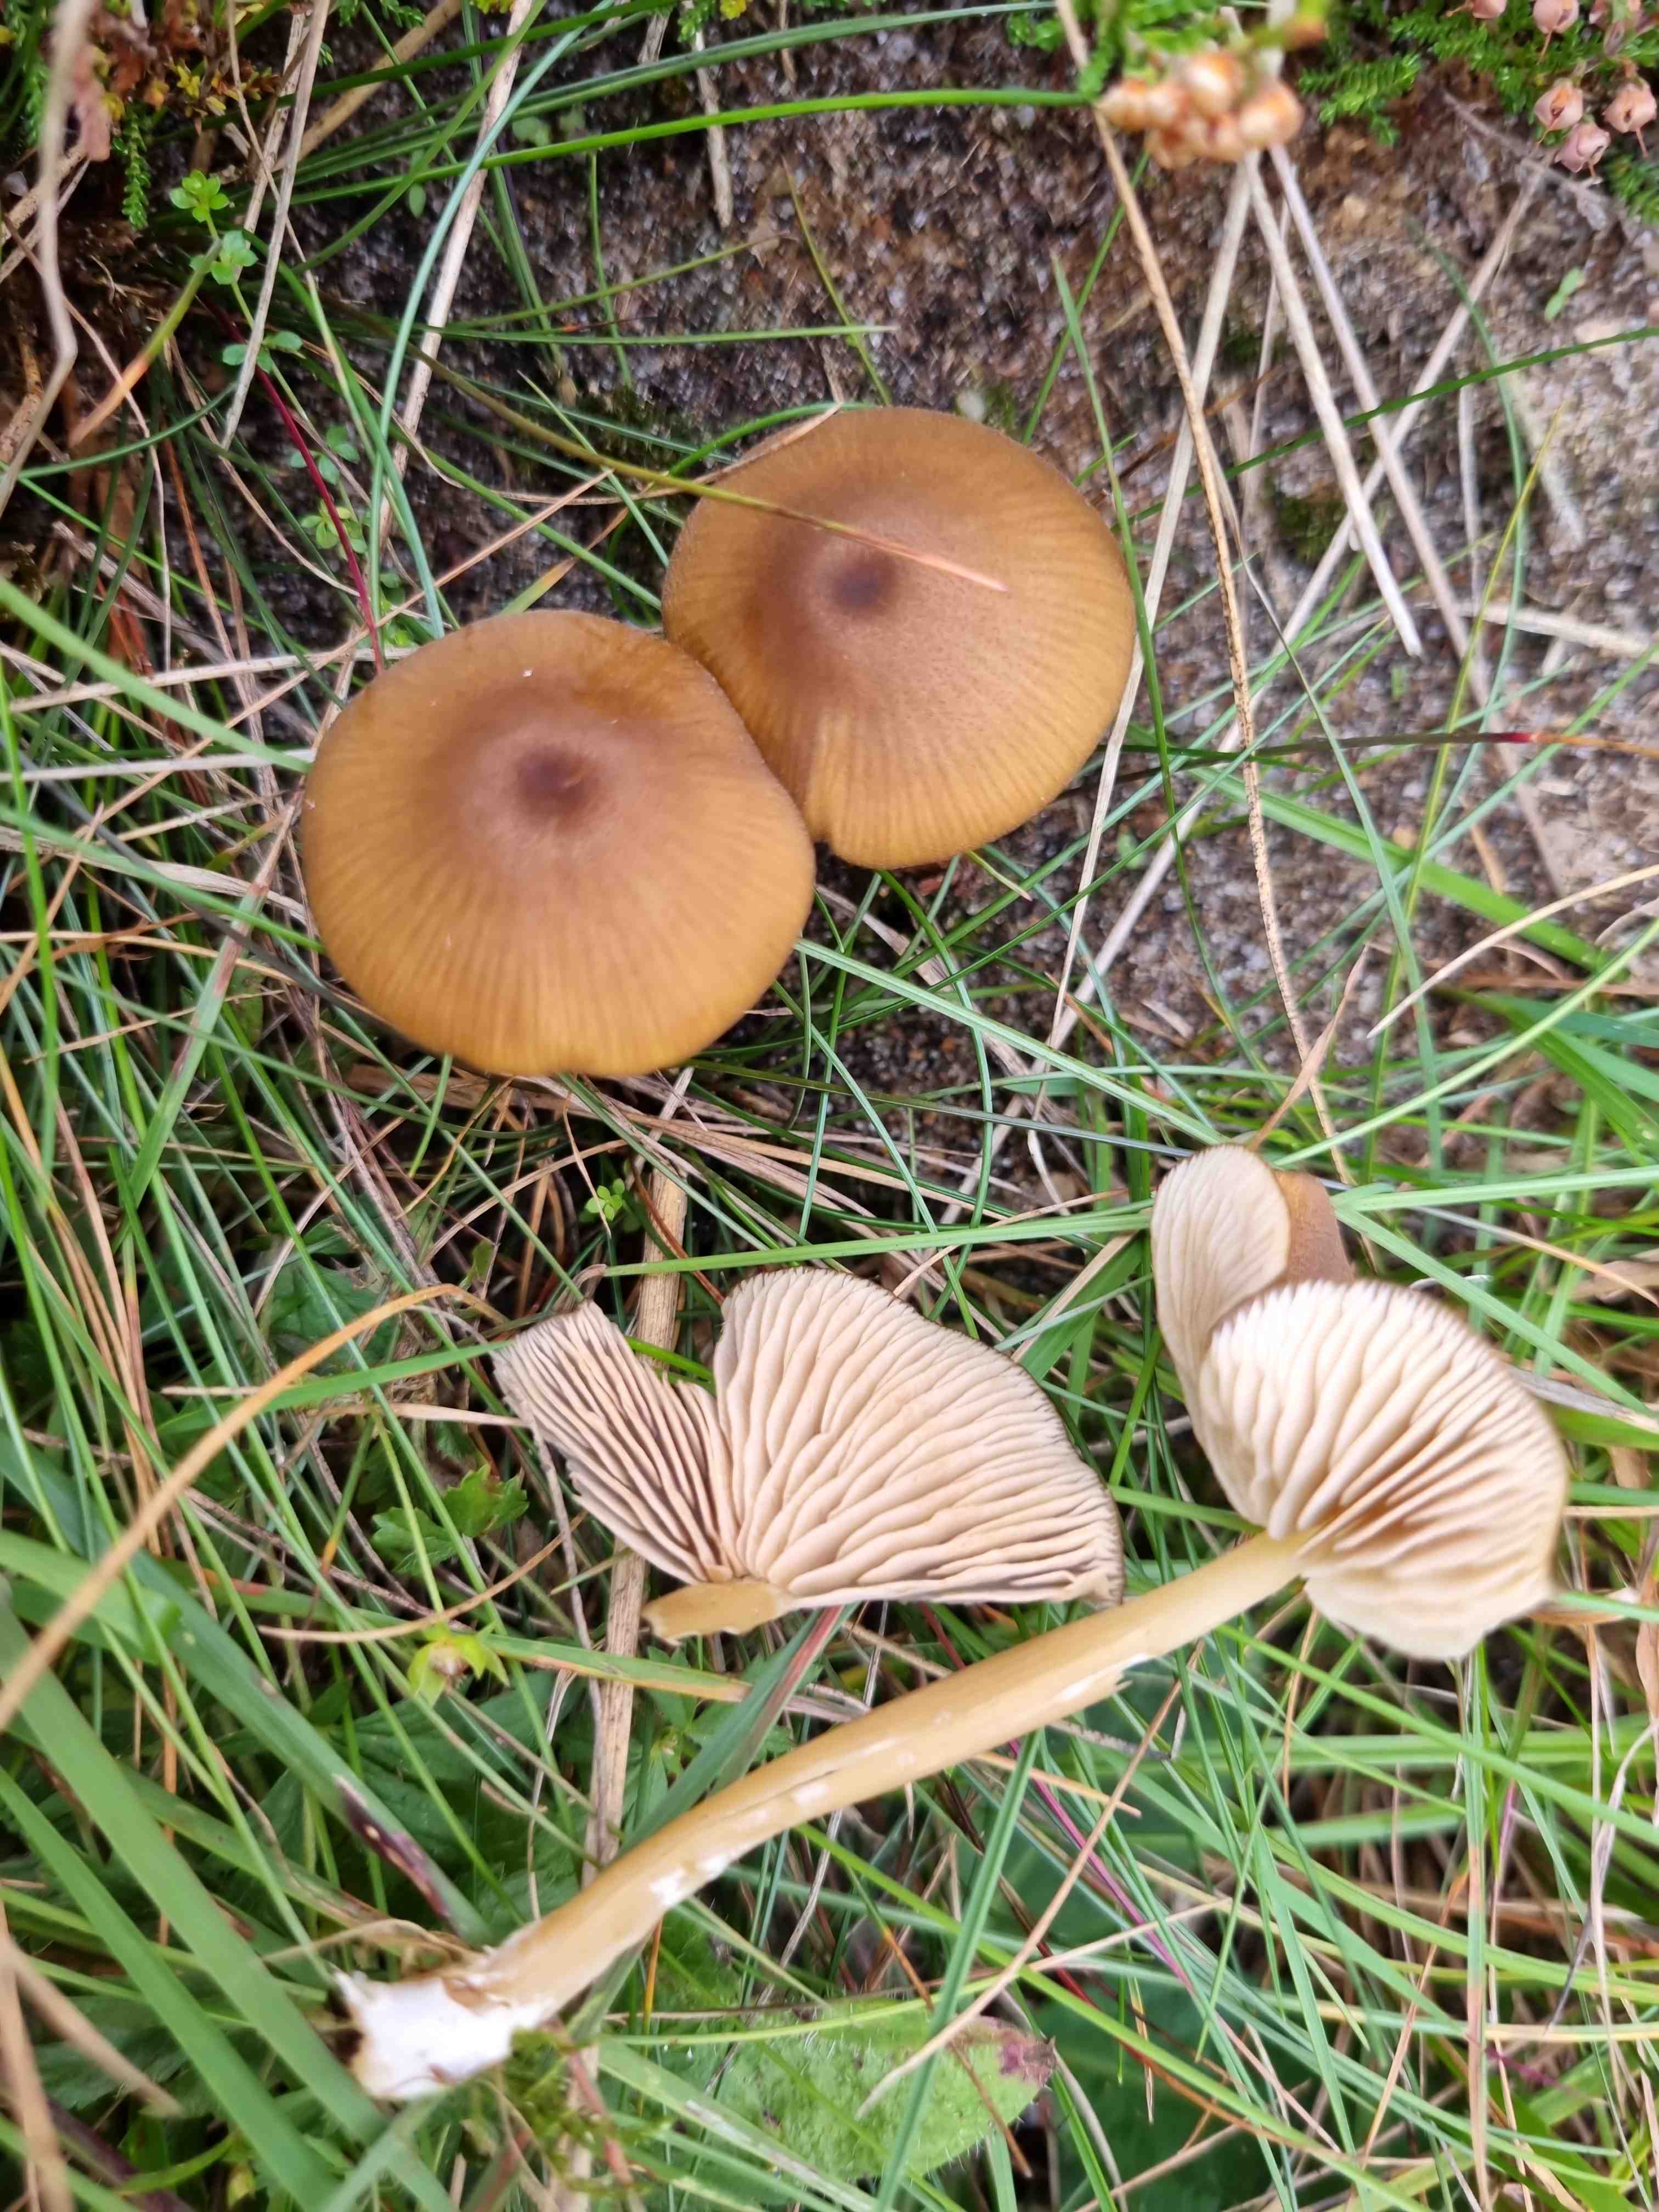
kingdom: Fungi
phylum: Basidiomycota
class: Agaricomycetes
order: Agaricales
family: Entolomataceae
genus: Entoloma
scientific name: Entoloma formosum
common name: brungul rødblad
